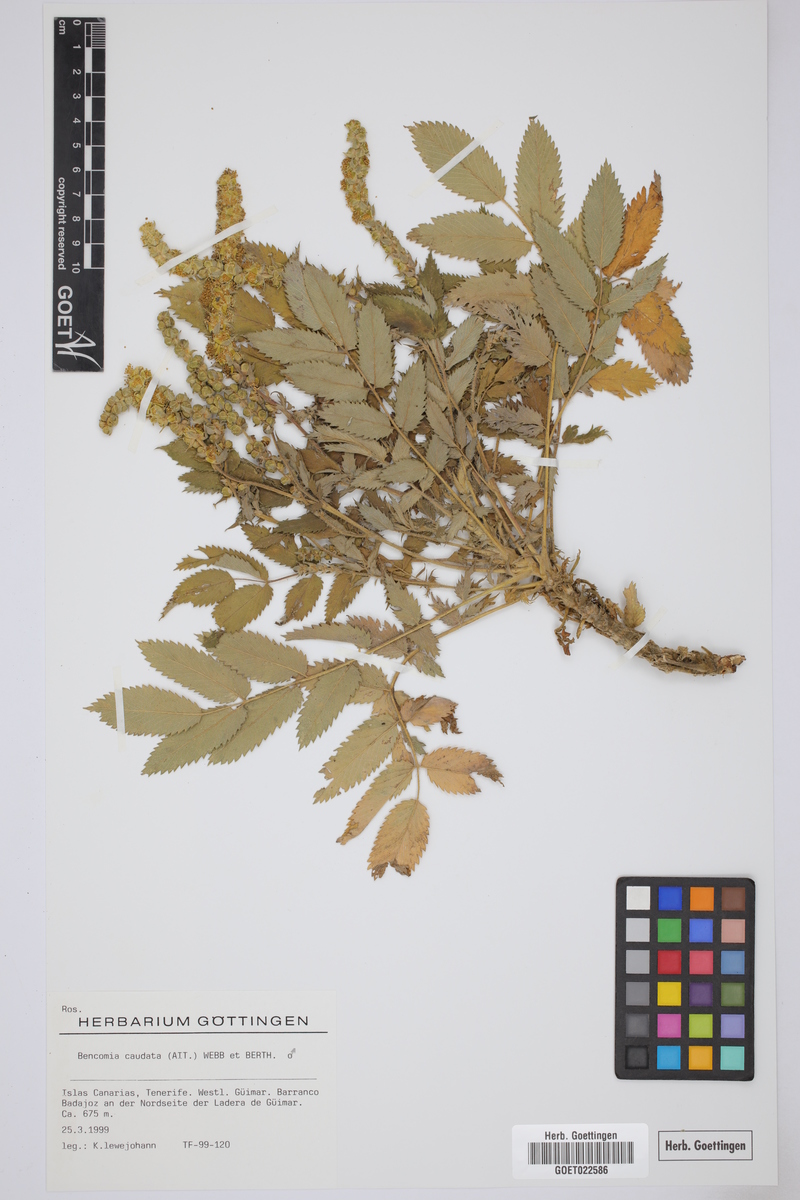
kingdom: Plantae
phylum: Tracheophyta
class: Magnoliopsida
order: Rosales
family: Rosaceae
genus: Bencomia
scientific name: Bencomia caudata
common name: Bencomia
